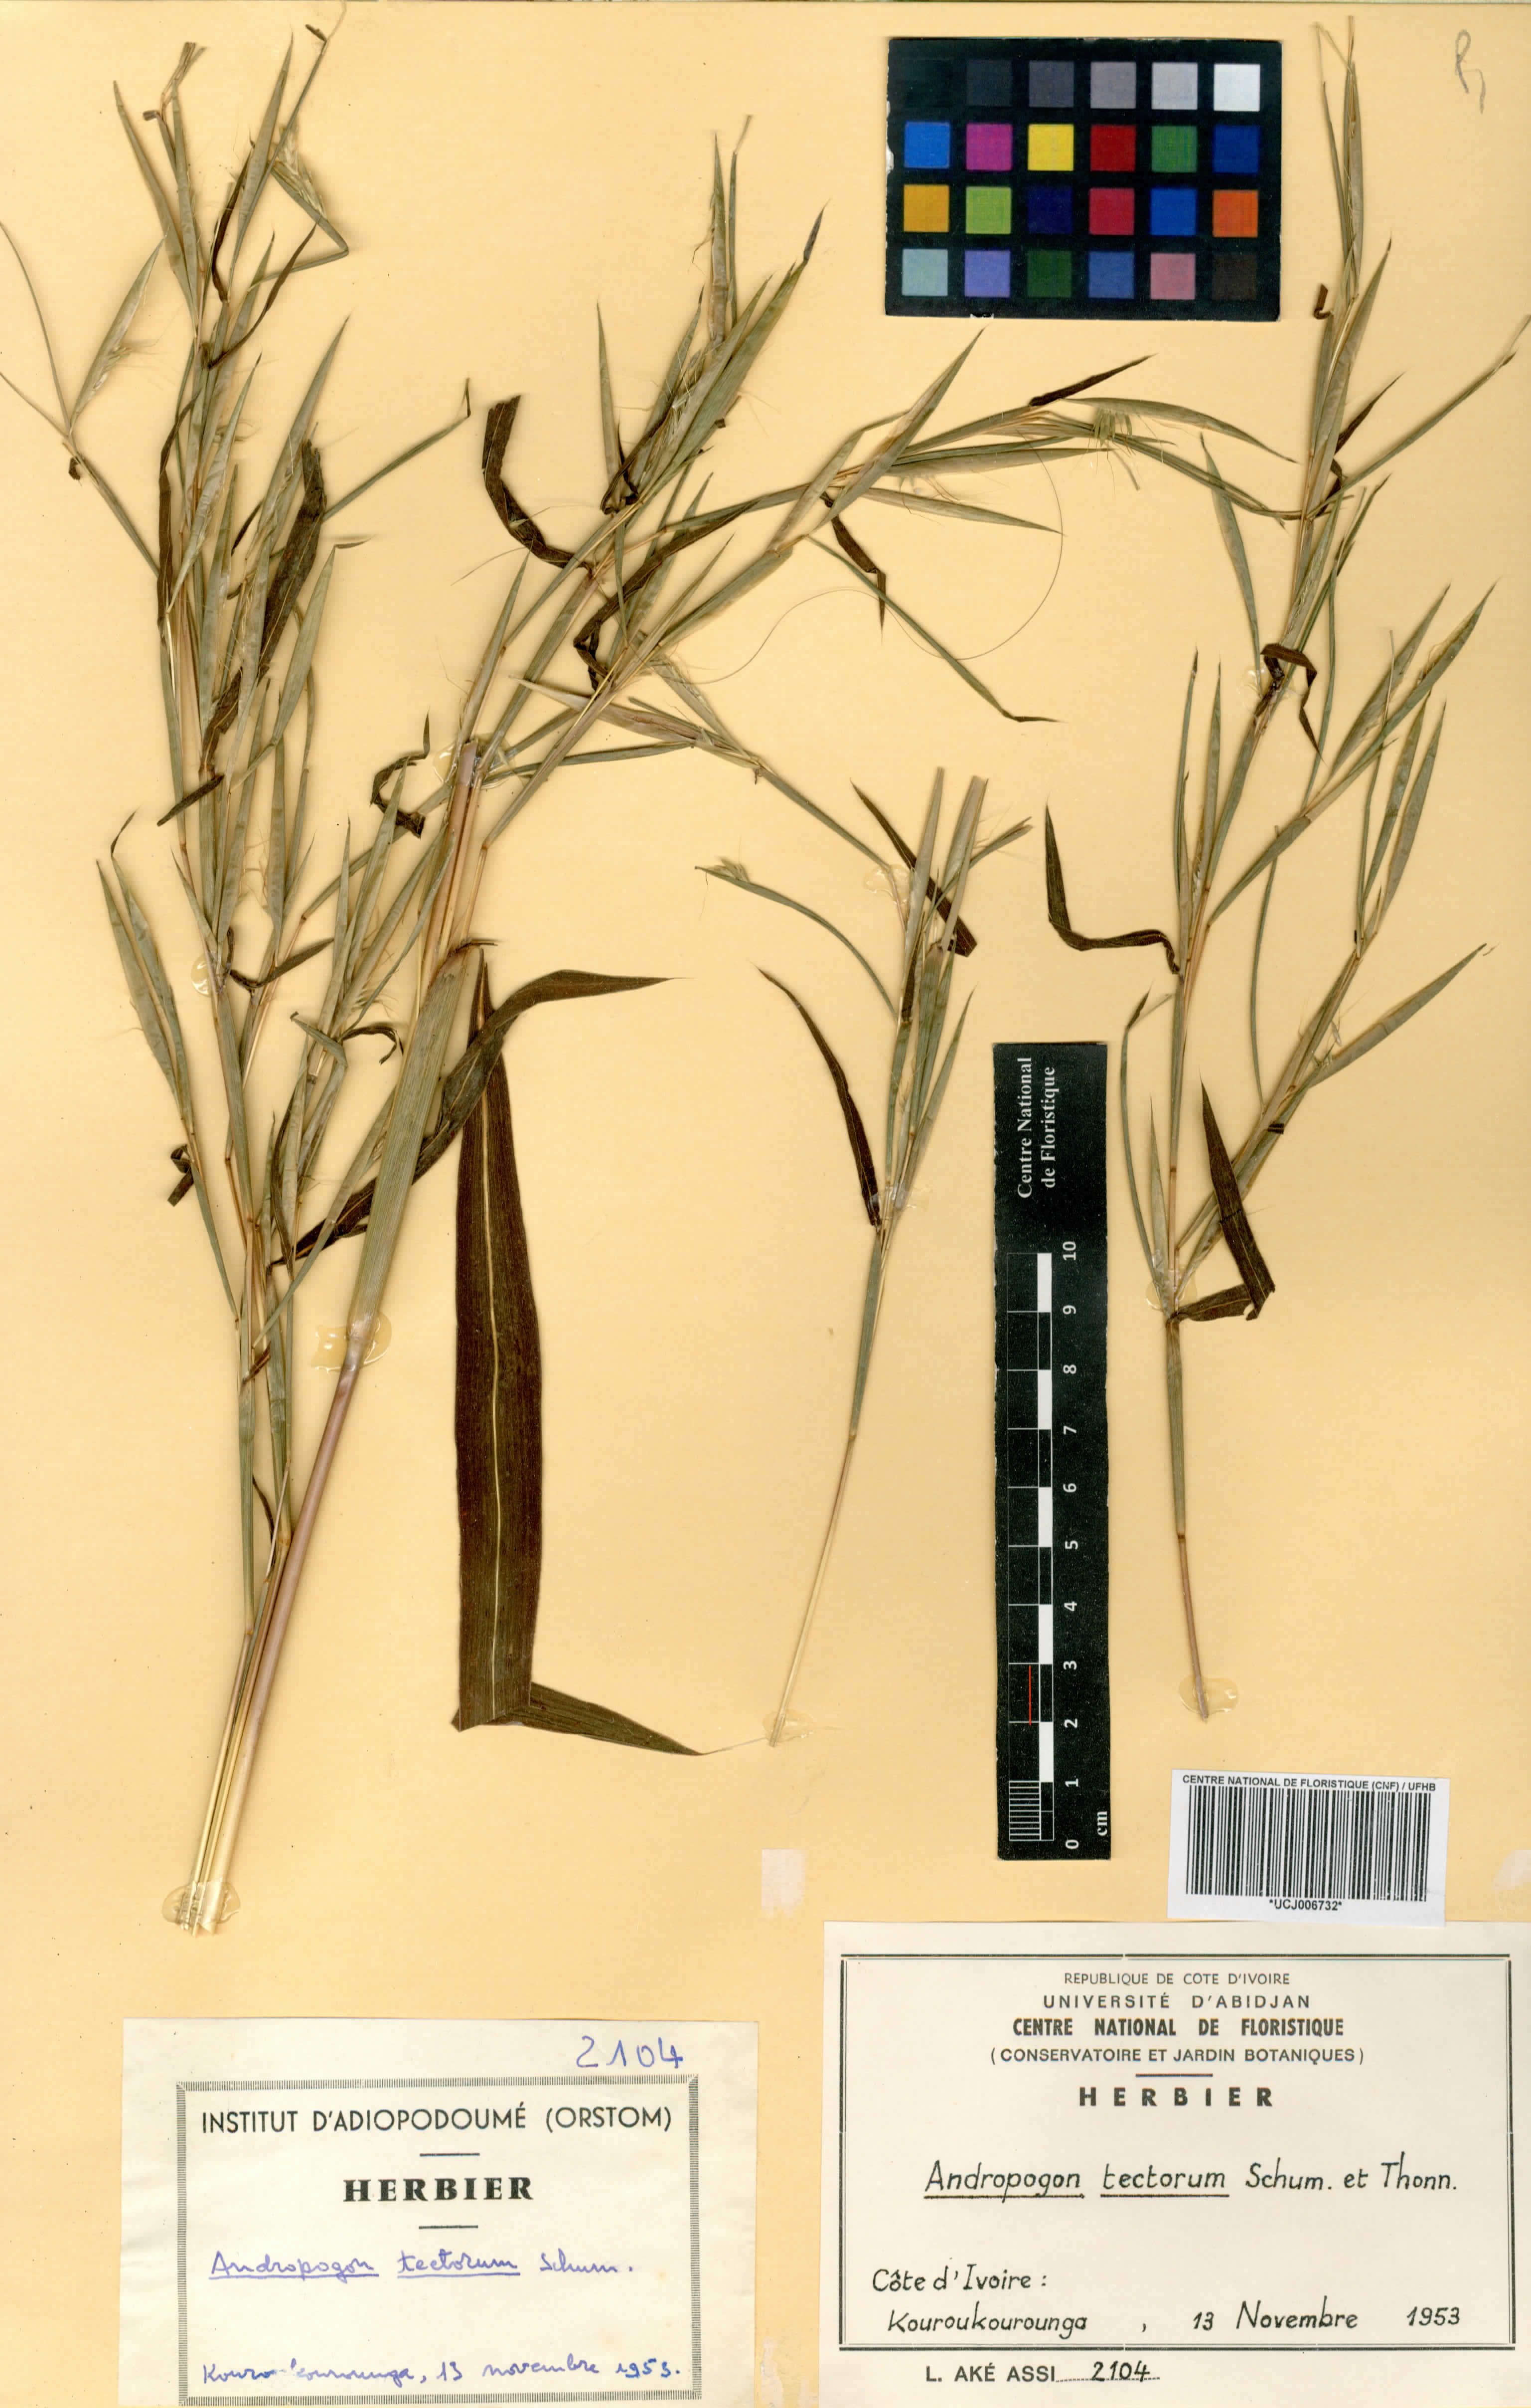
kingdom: Plantae
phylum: Tracheophyta
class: Liliopsida
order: Poales
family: Poaceae
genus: Andropogon
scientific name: Andropogon tectorum
